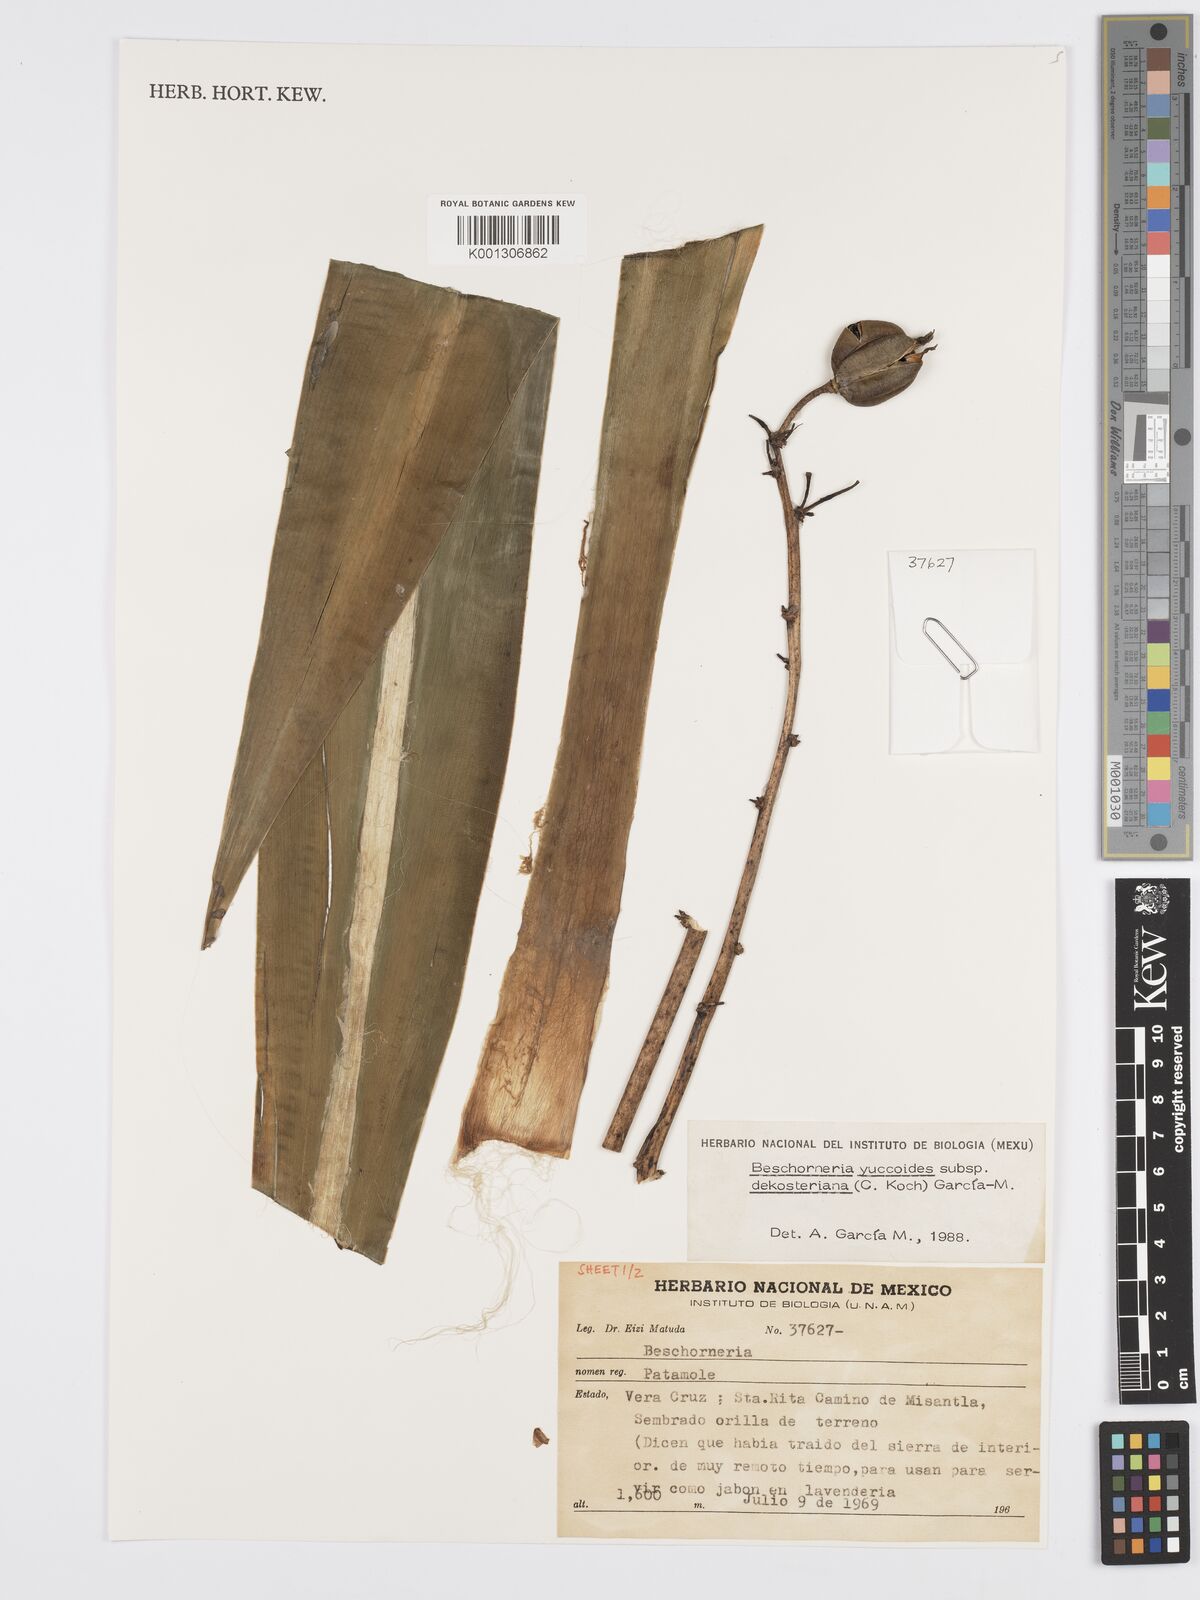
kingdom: Plantae
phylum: Tracheophyta
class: Liliopsida
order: Asparagales
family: Asparagaceae
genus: Beschorneria
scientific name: Beschorneria yuccoides
